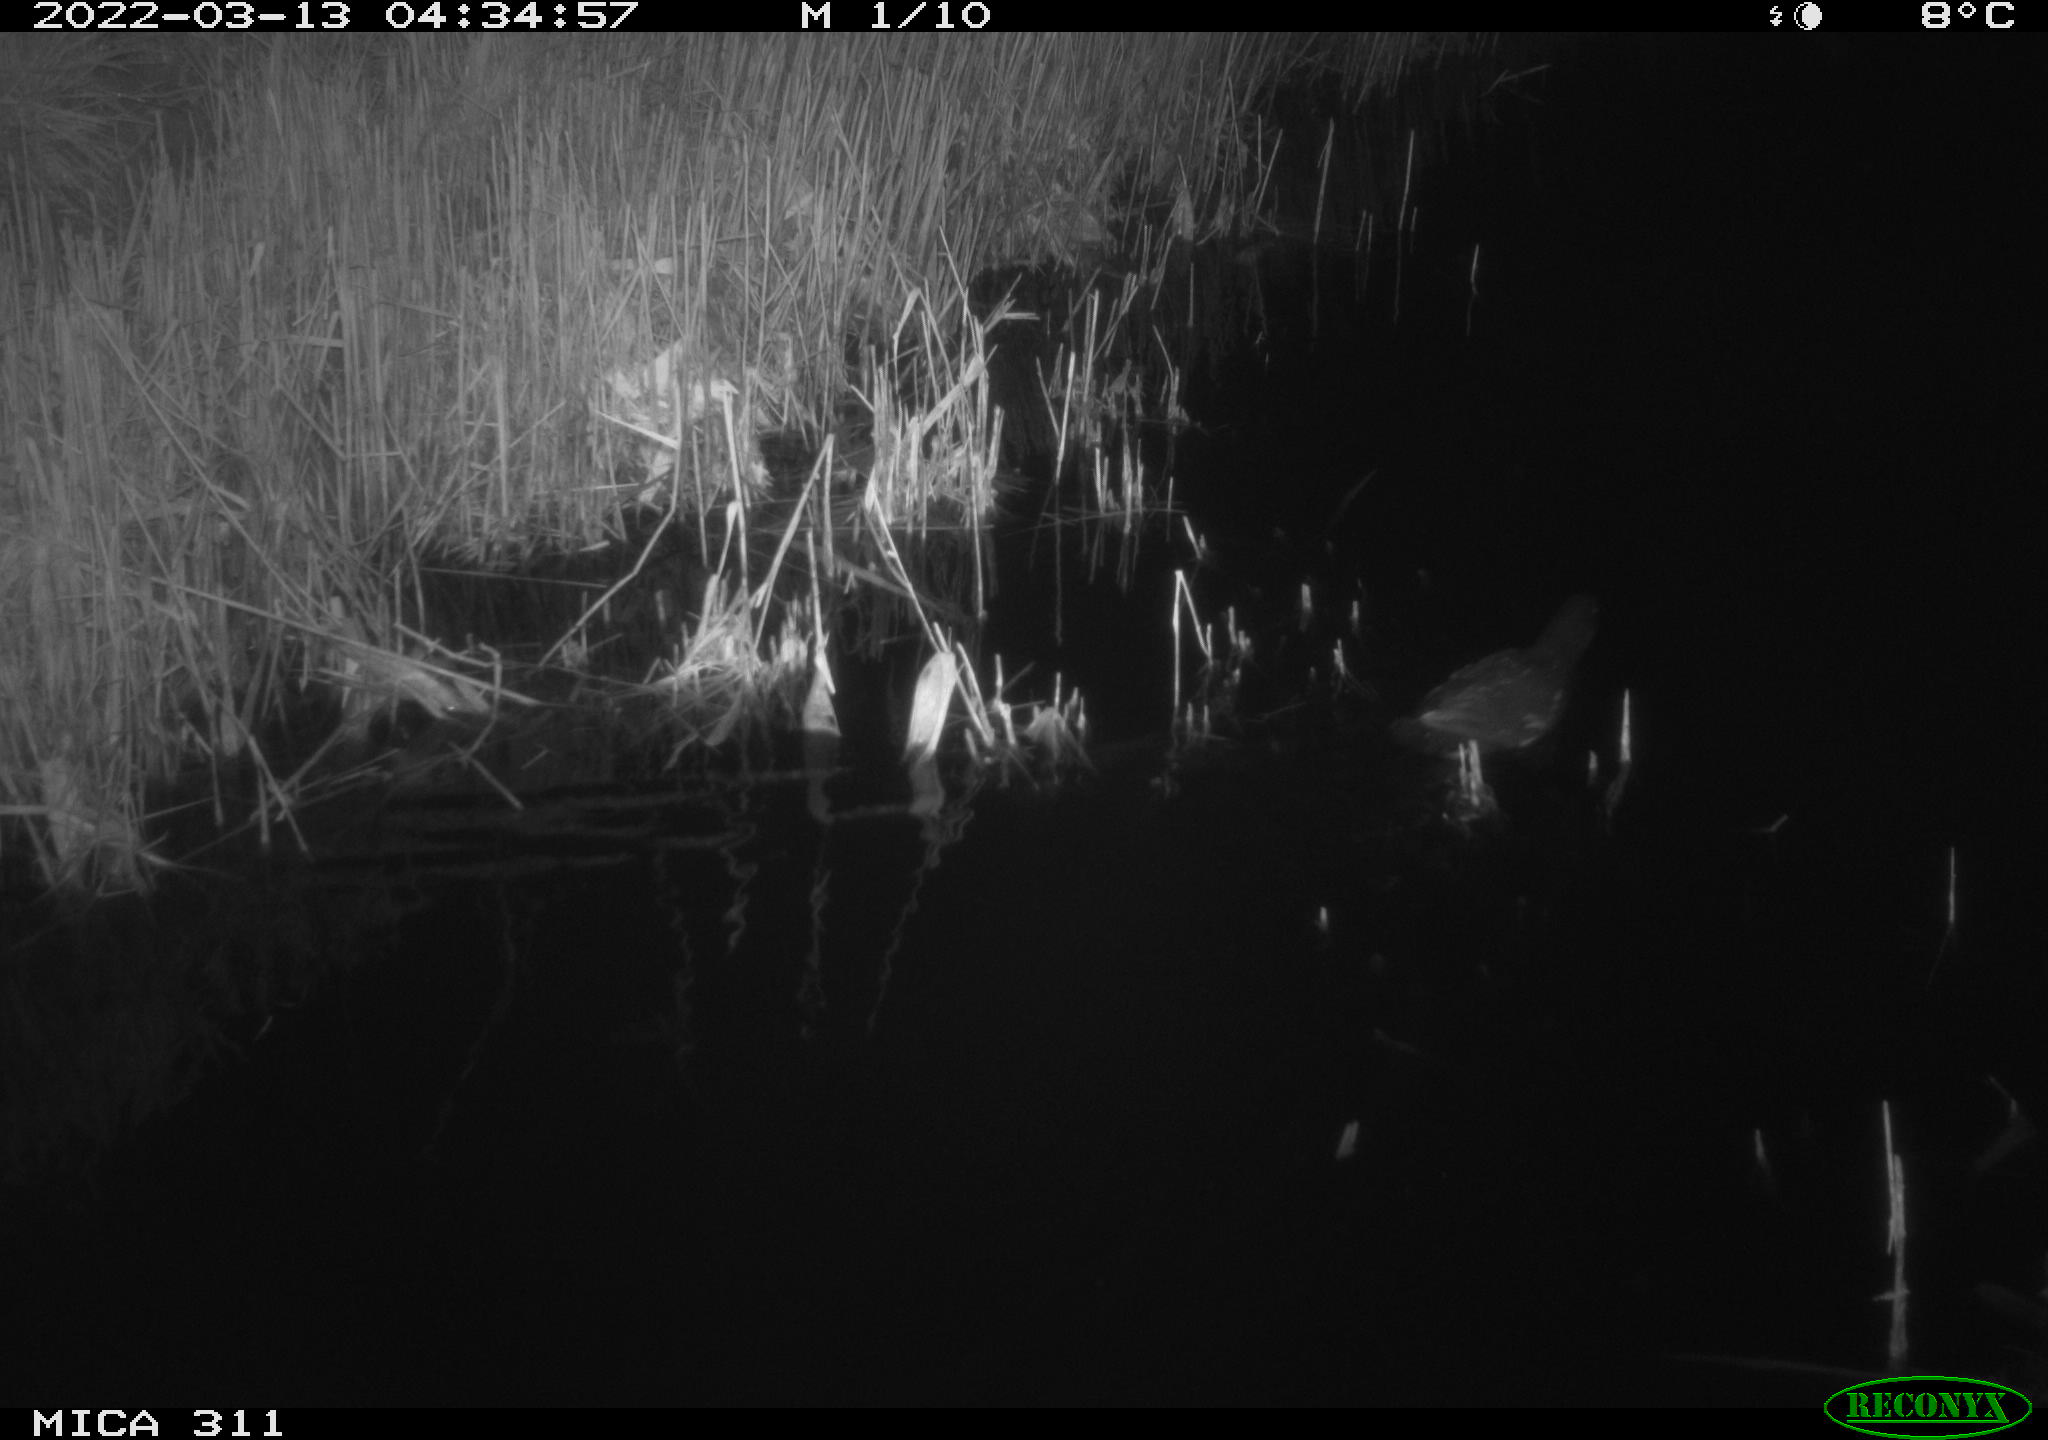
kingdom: Animalia
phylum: Chordata
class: Aves
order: Gruiformes
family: Rallidae
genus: Gallinula
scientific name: Gallinula chloropus
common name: Common moorhen
